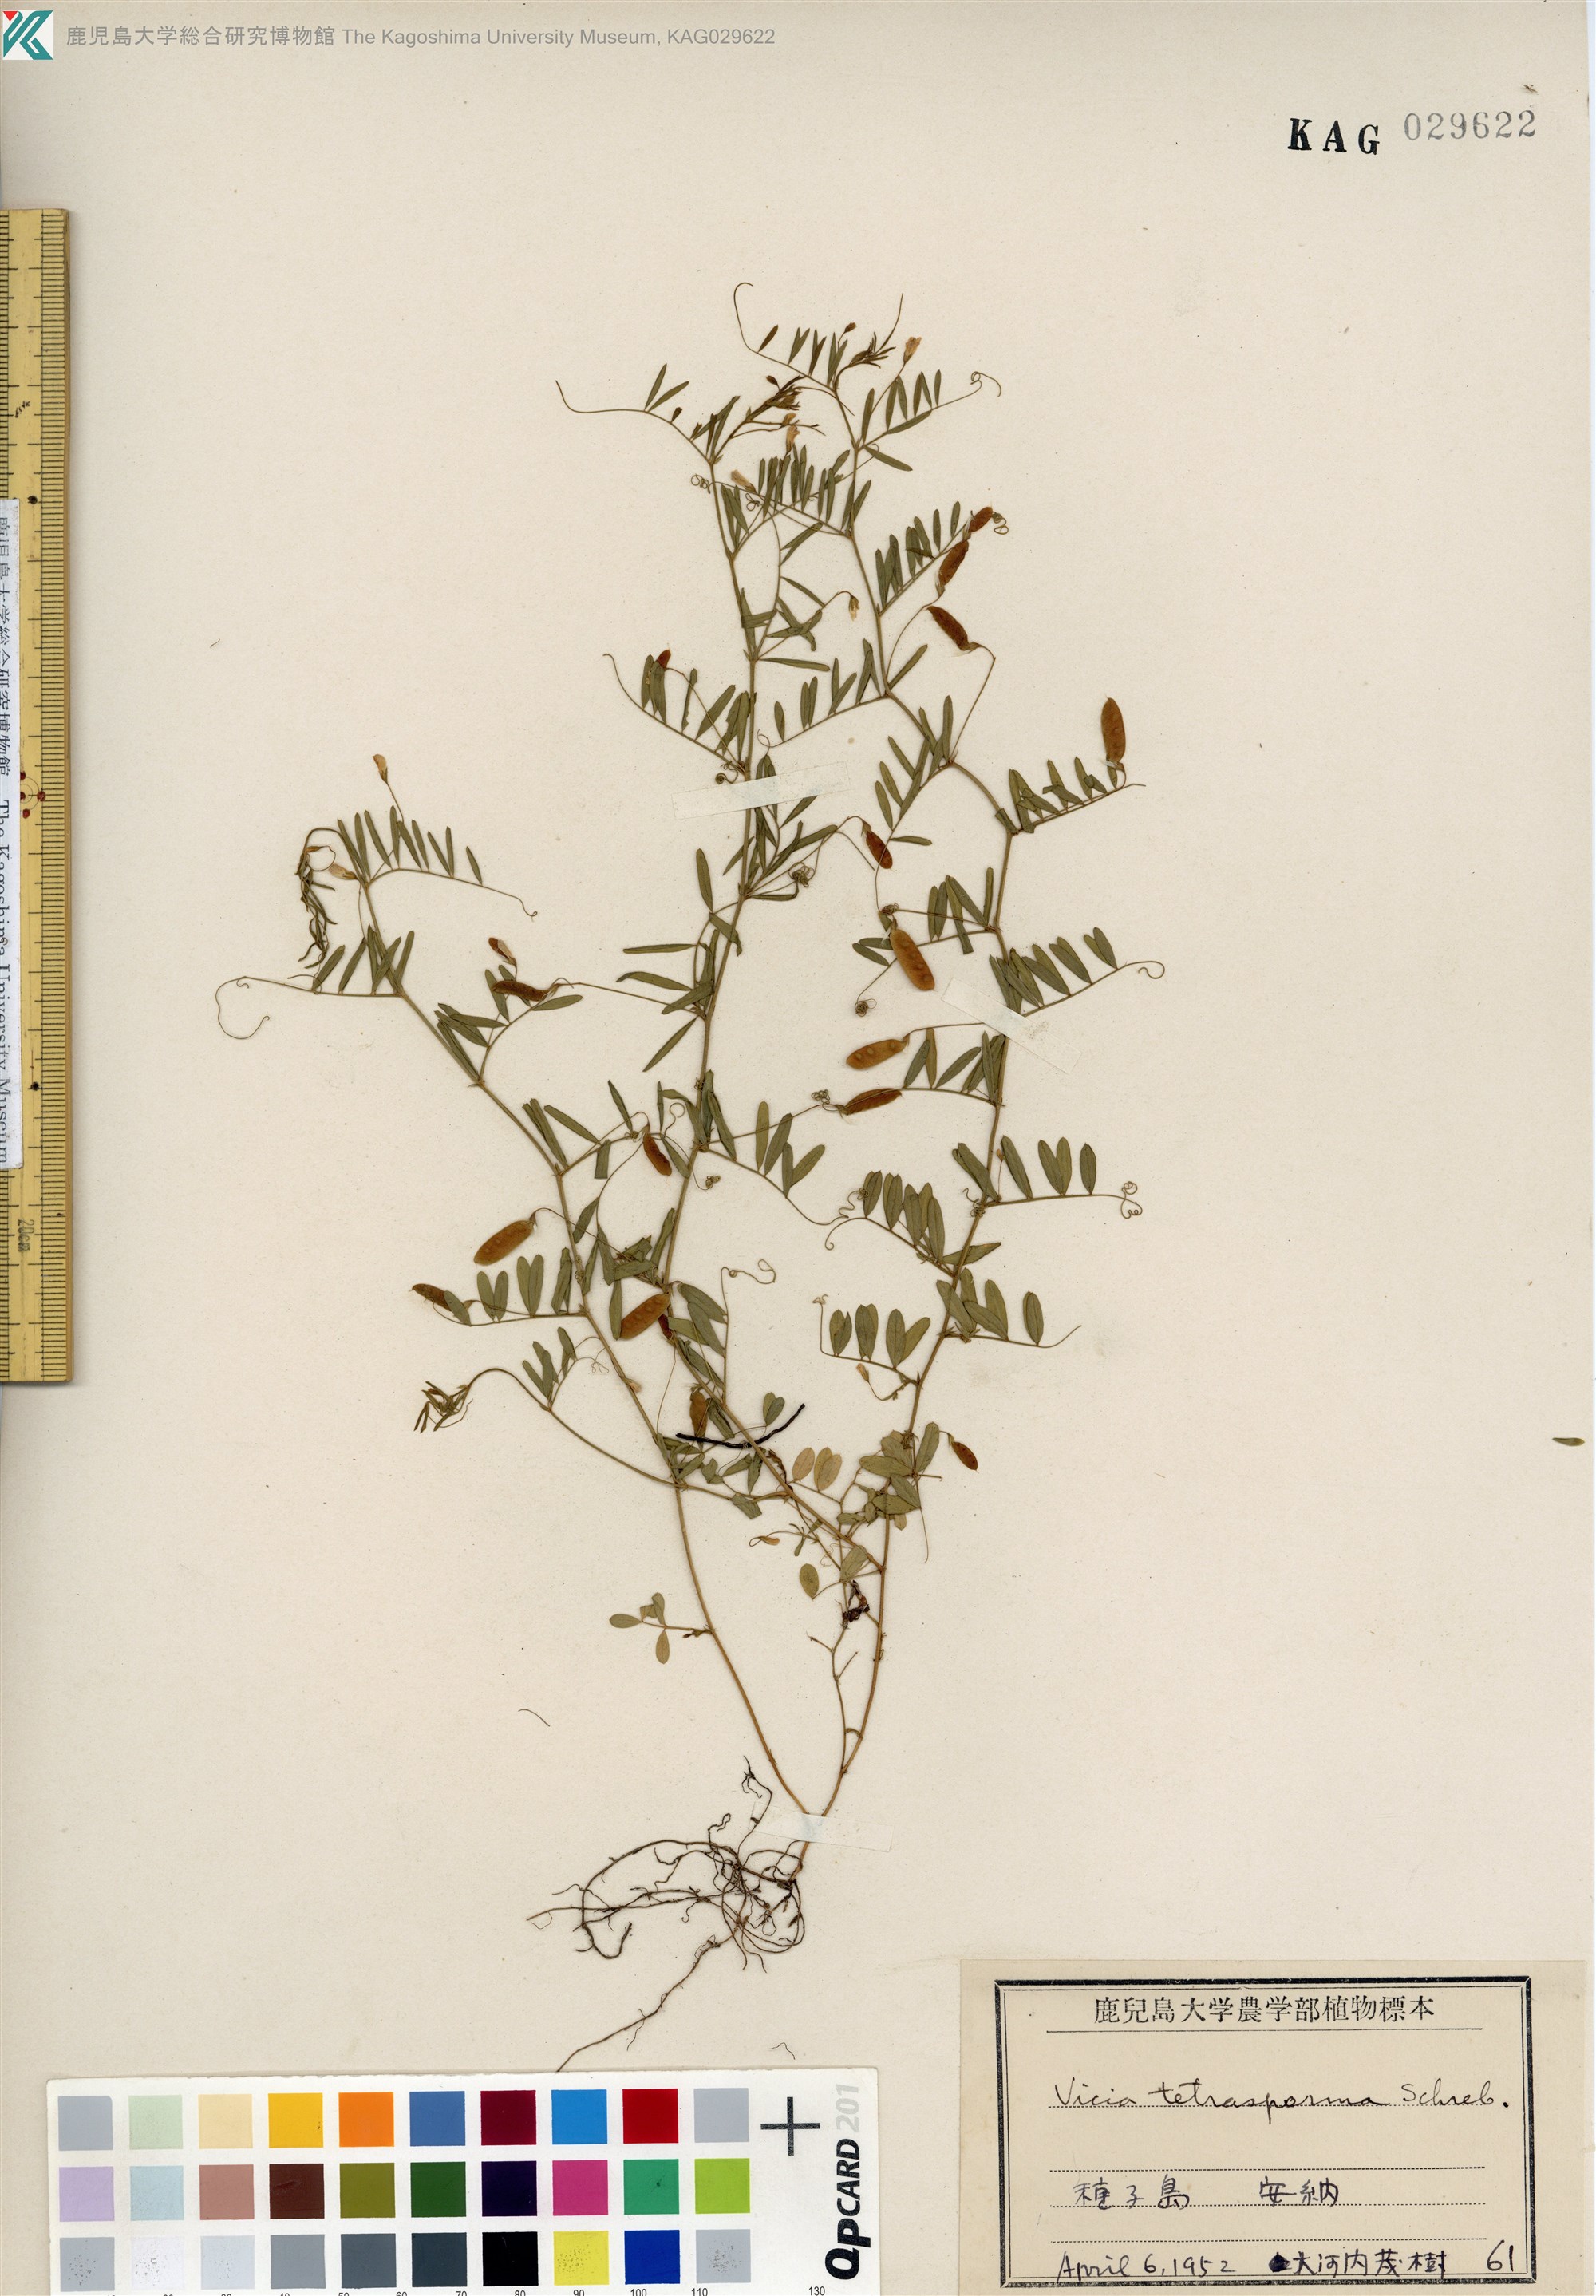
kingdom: Plantae
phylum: Tracheophyta
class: Magnoliopsida
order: Fabales
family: Fabaceae
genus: Vicia
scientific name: Vicia tetrasperma
